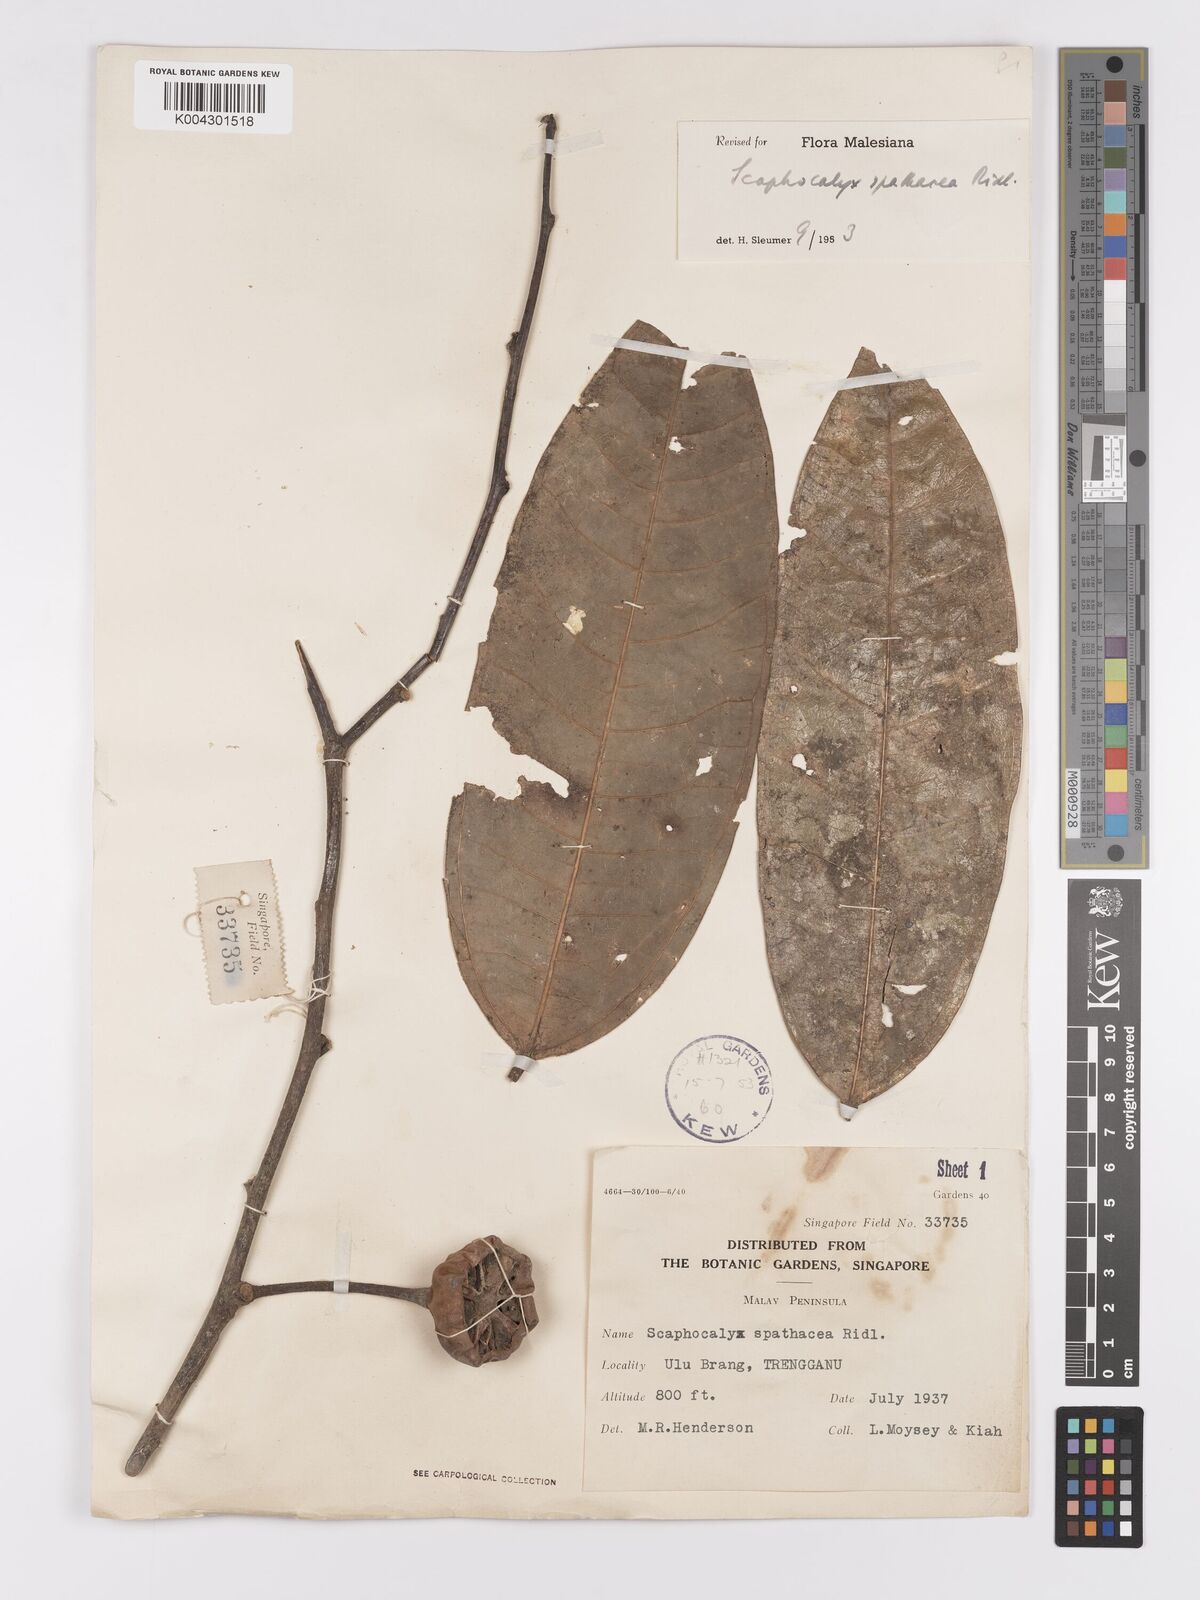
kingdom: Plantae
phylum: Tracheophyta
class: Magnoliopsida
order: Malpighiales
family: Achariaceae
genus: Scaphocalyx
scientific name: Scaphocalyx spathacea
